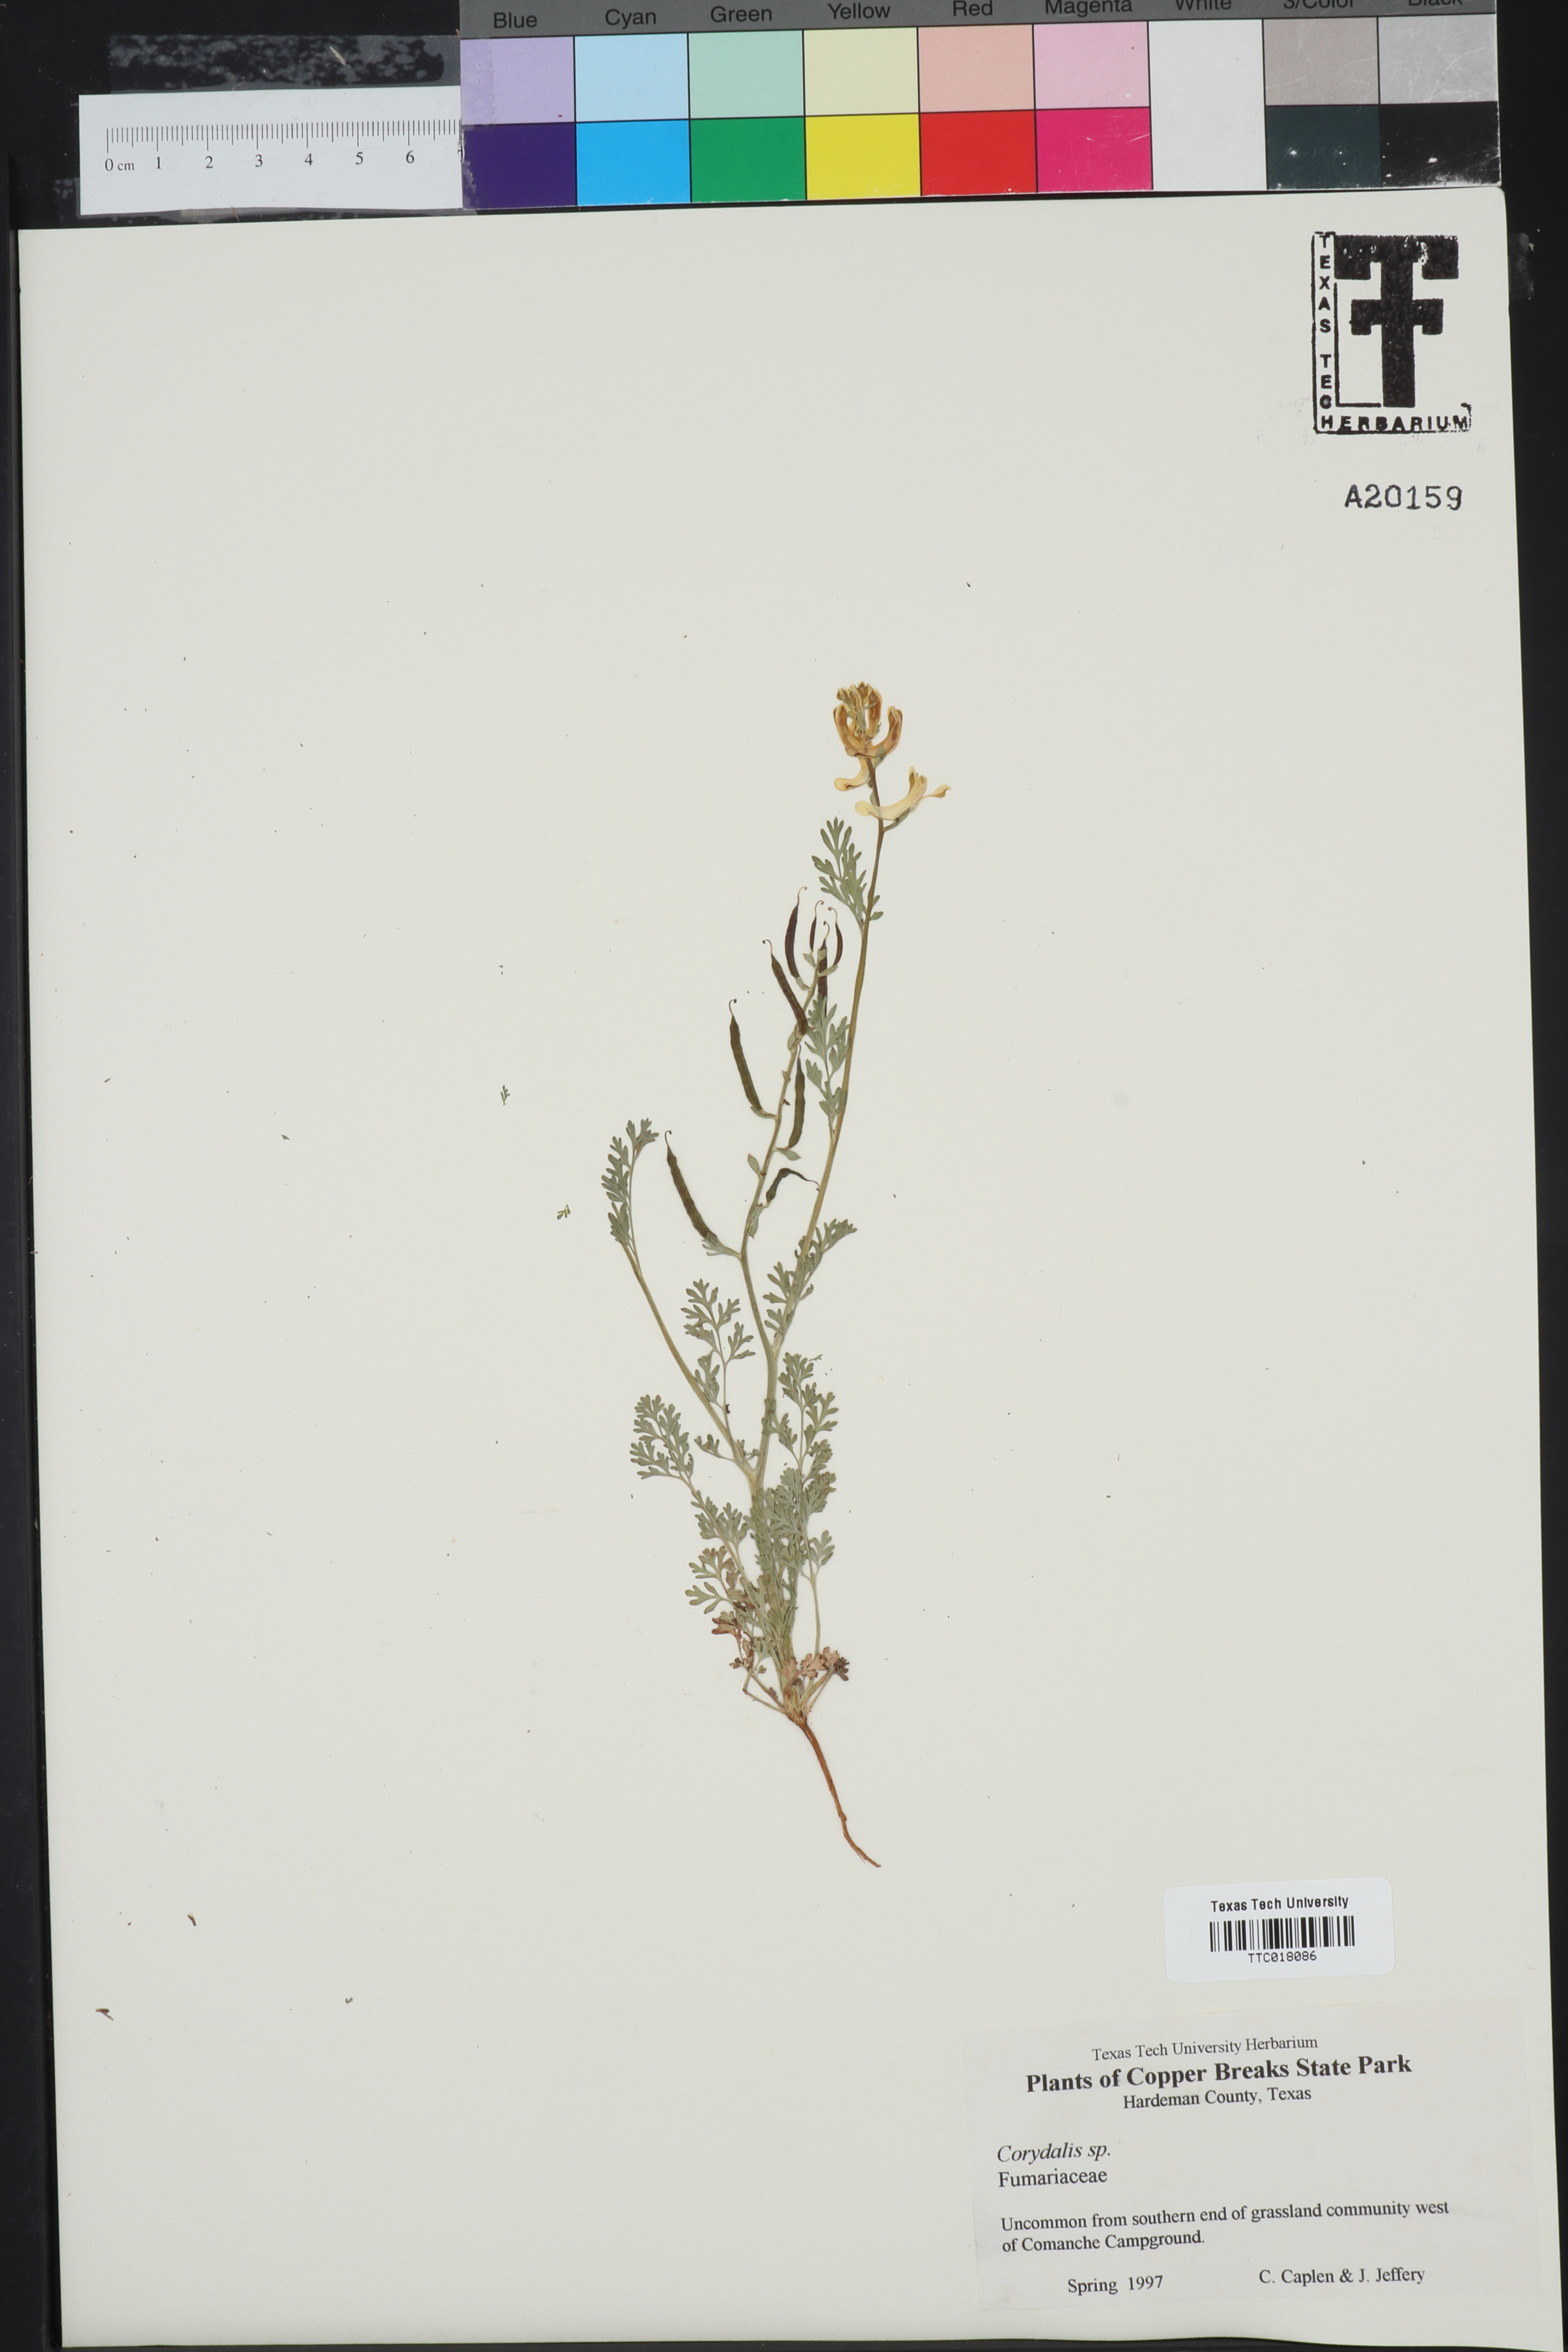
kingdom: Plantae
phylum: Tracheophyta
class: Magnoliopsida
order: Ranunculales
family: Papaveraceae
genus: Corydalis
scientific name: Corydalis
